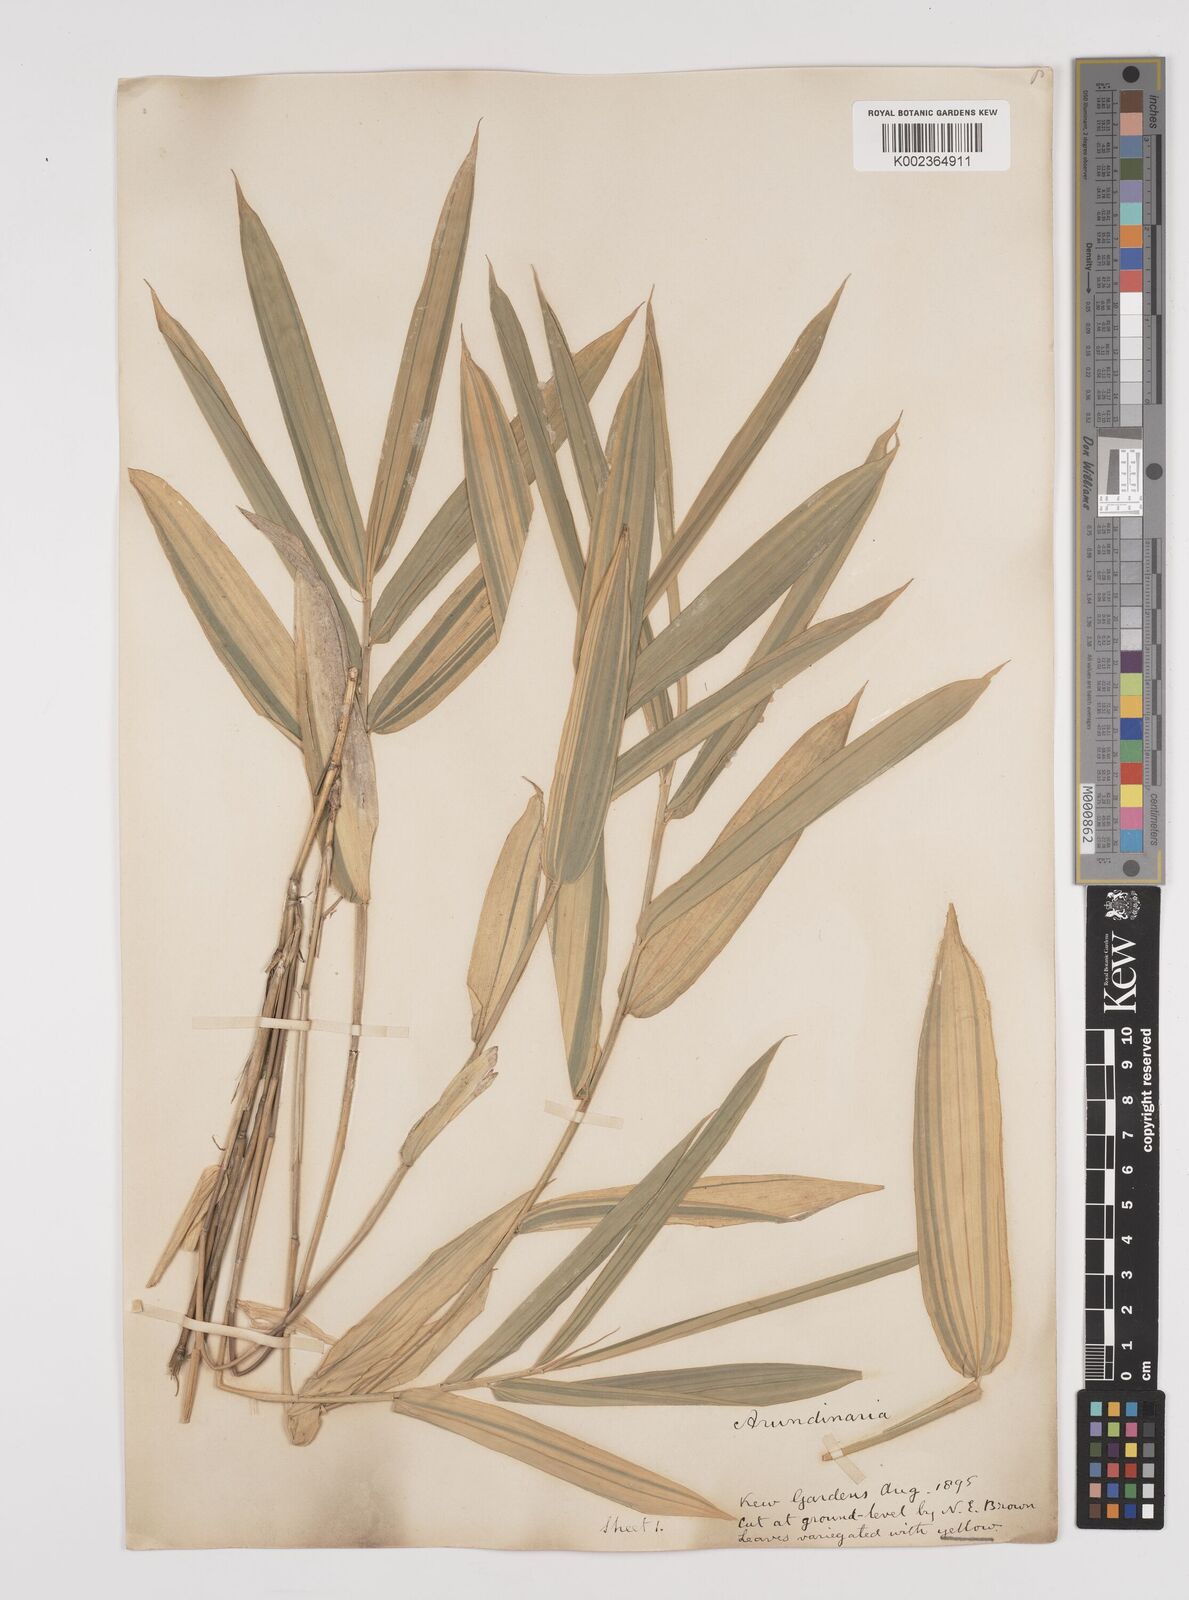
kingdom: Plantae
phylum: Tracheophyta
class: Liliopsida
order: Poales
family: Poaceae
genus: Pleioblastus
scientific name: Pleioblastus viridistriatus
